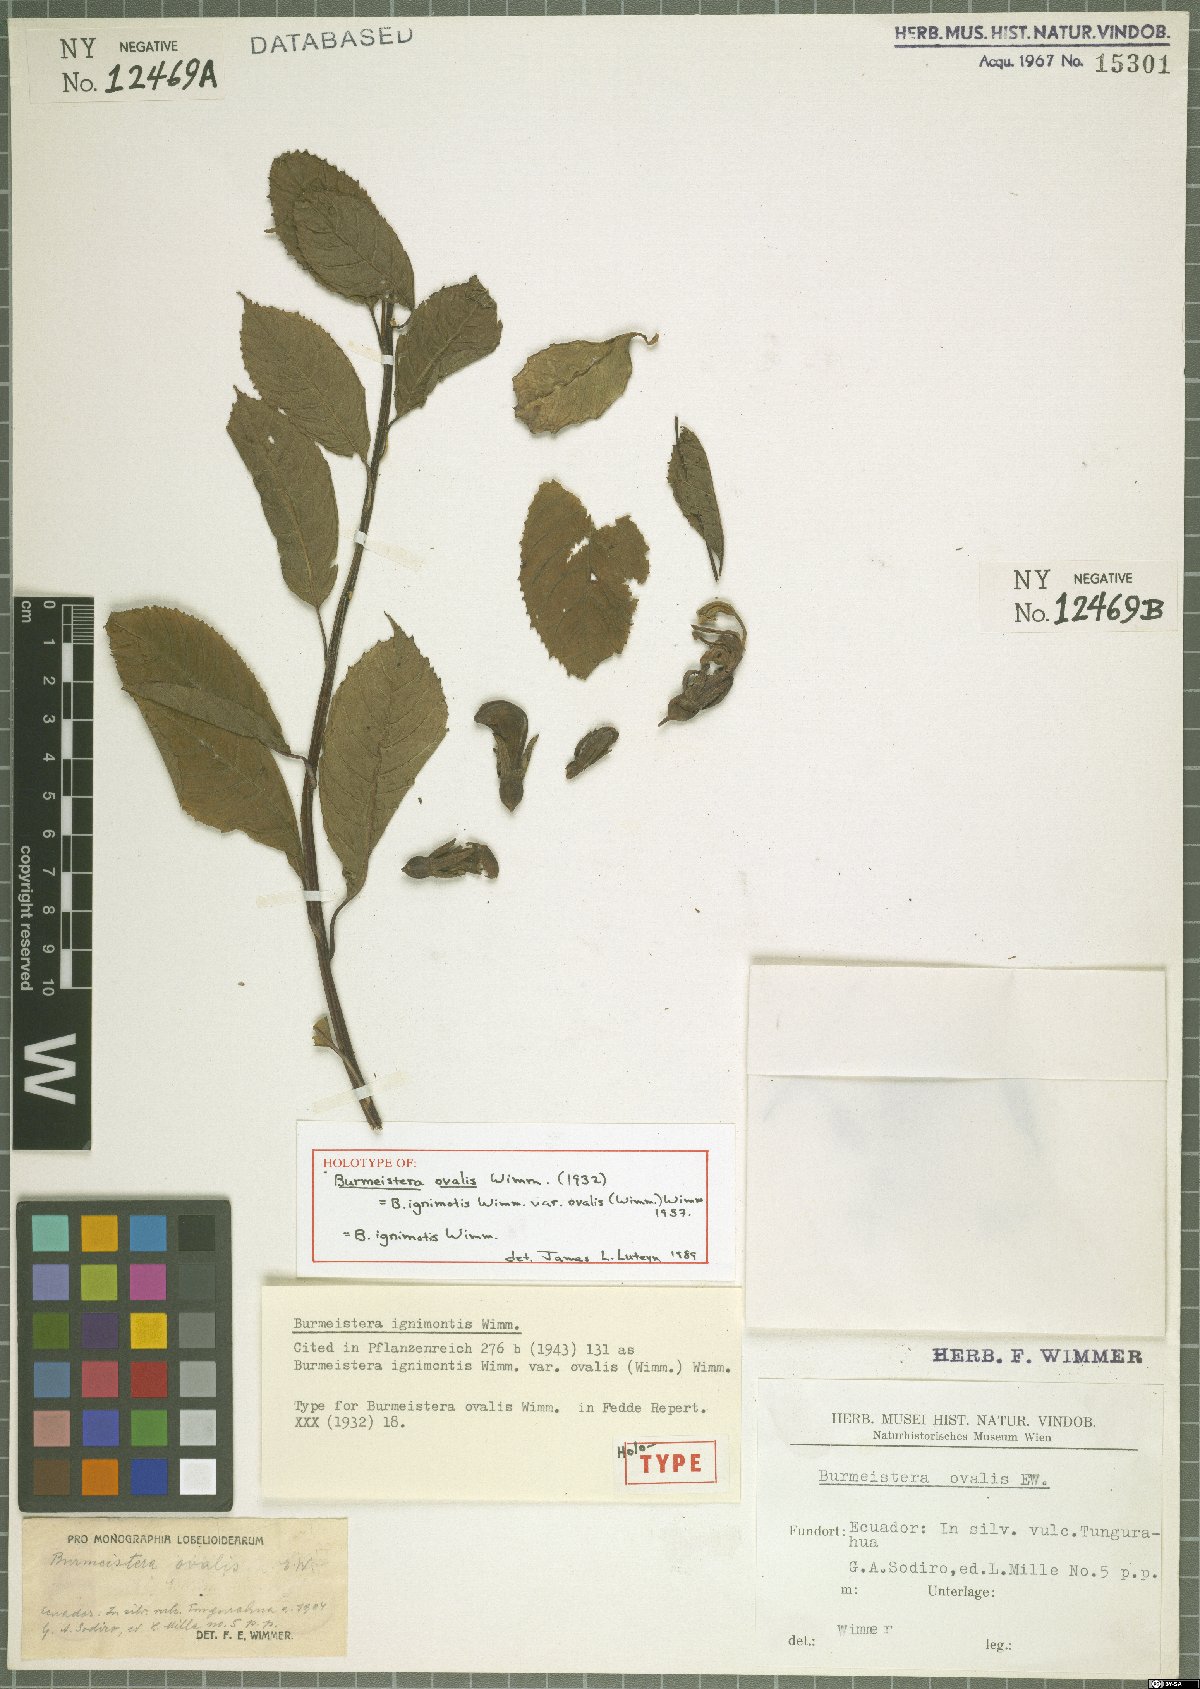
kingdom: Plantae
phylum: Tracheophyta
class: Magnoliopsida
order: Asterales
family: Campanulaceae
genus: Burmeistera
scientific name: Burmeistera ignimontis
